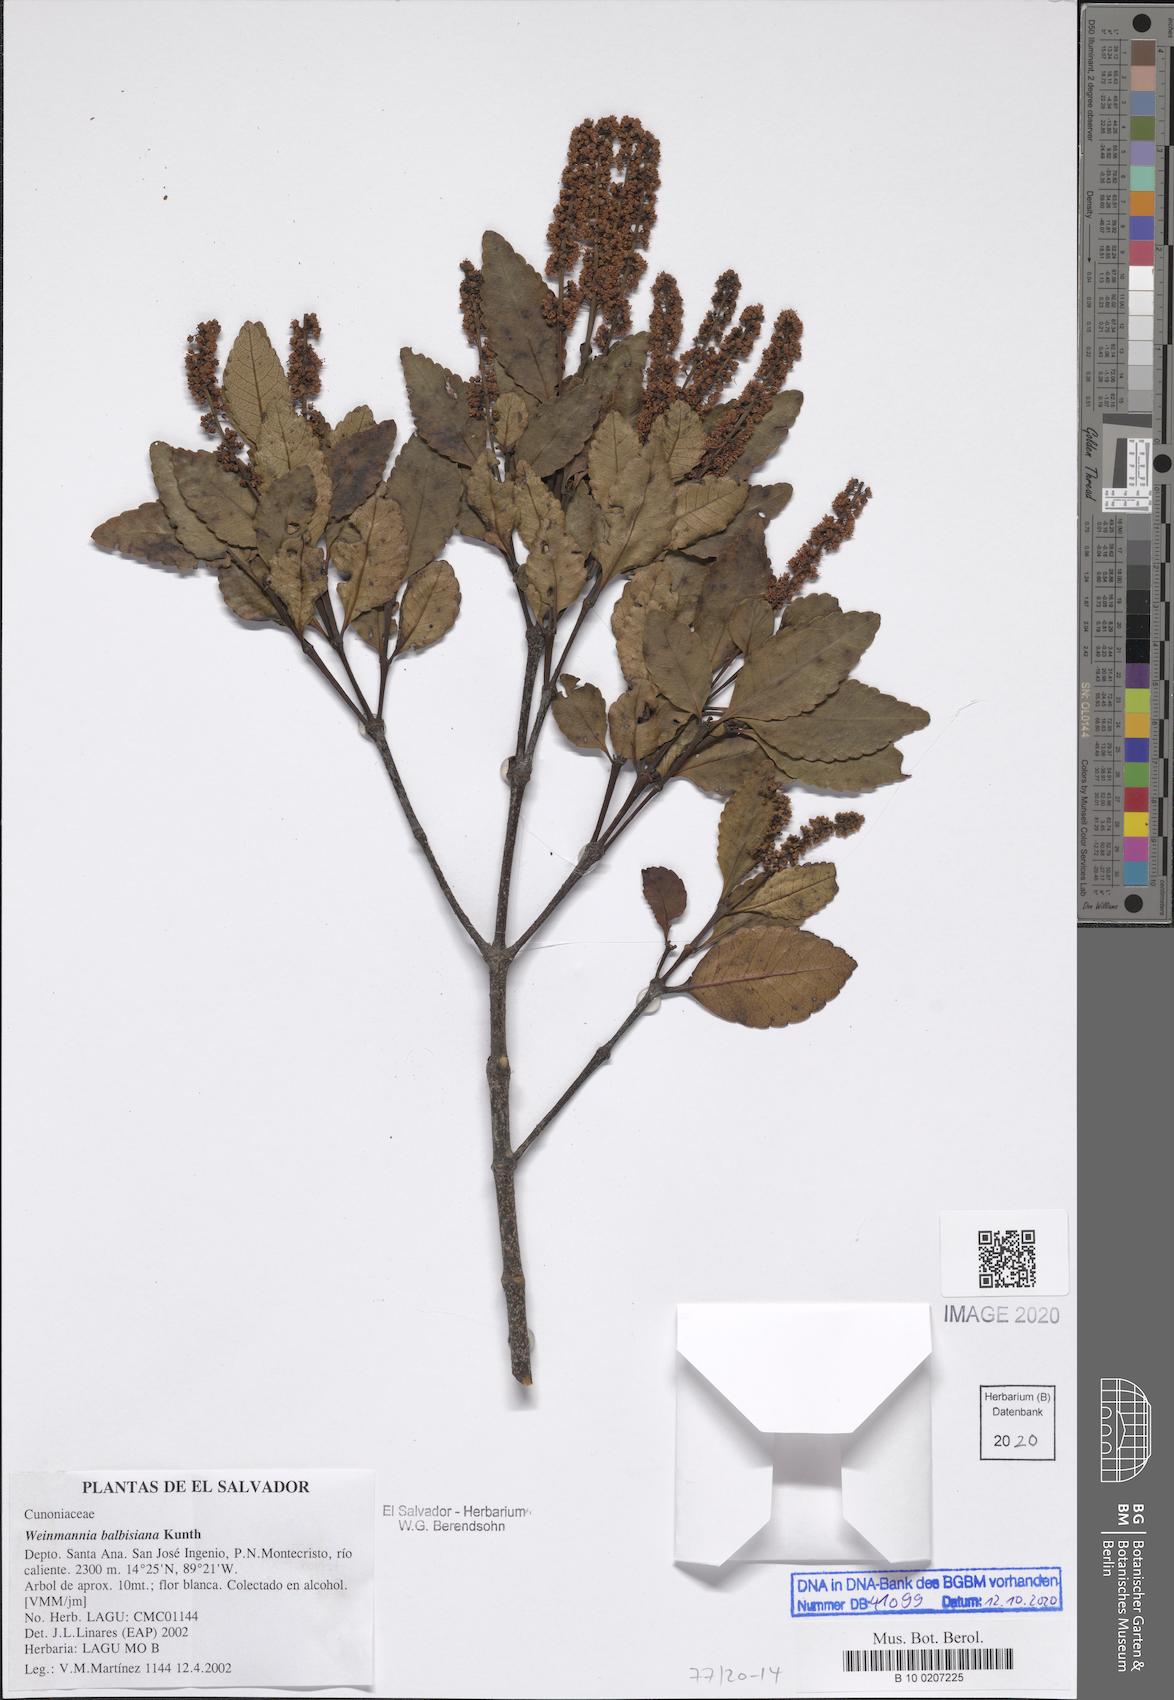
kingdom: Plantae
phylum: Tracheophyta
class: Magnoliopsida
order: Oxalidales
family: Cunoniaceae
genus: Weinmannia
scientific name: Weinmannia balbisana
